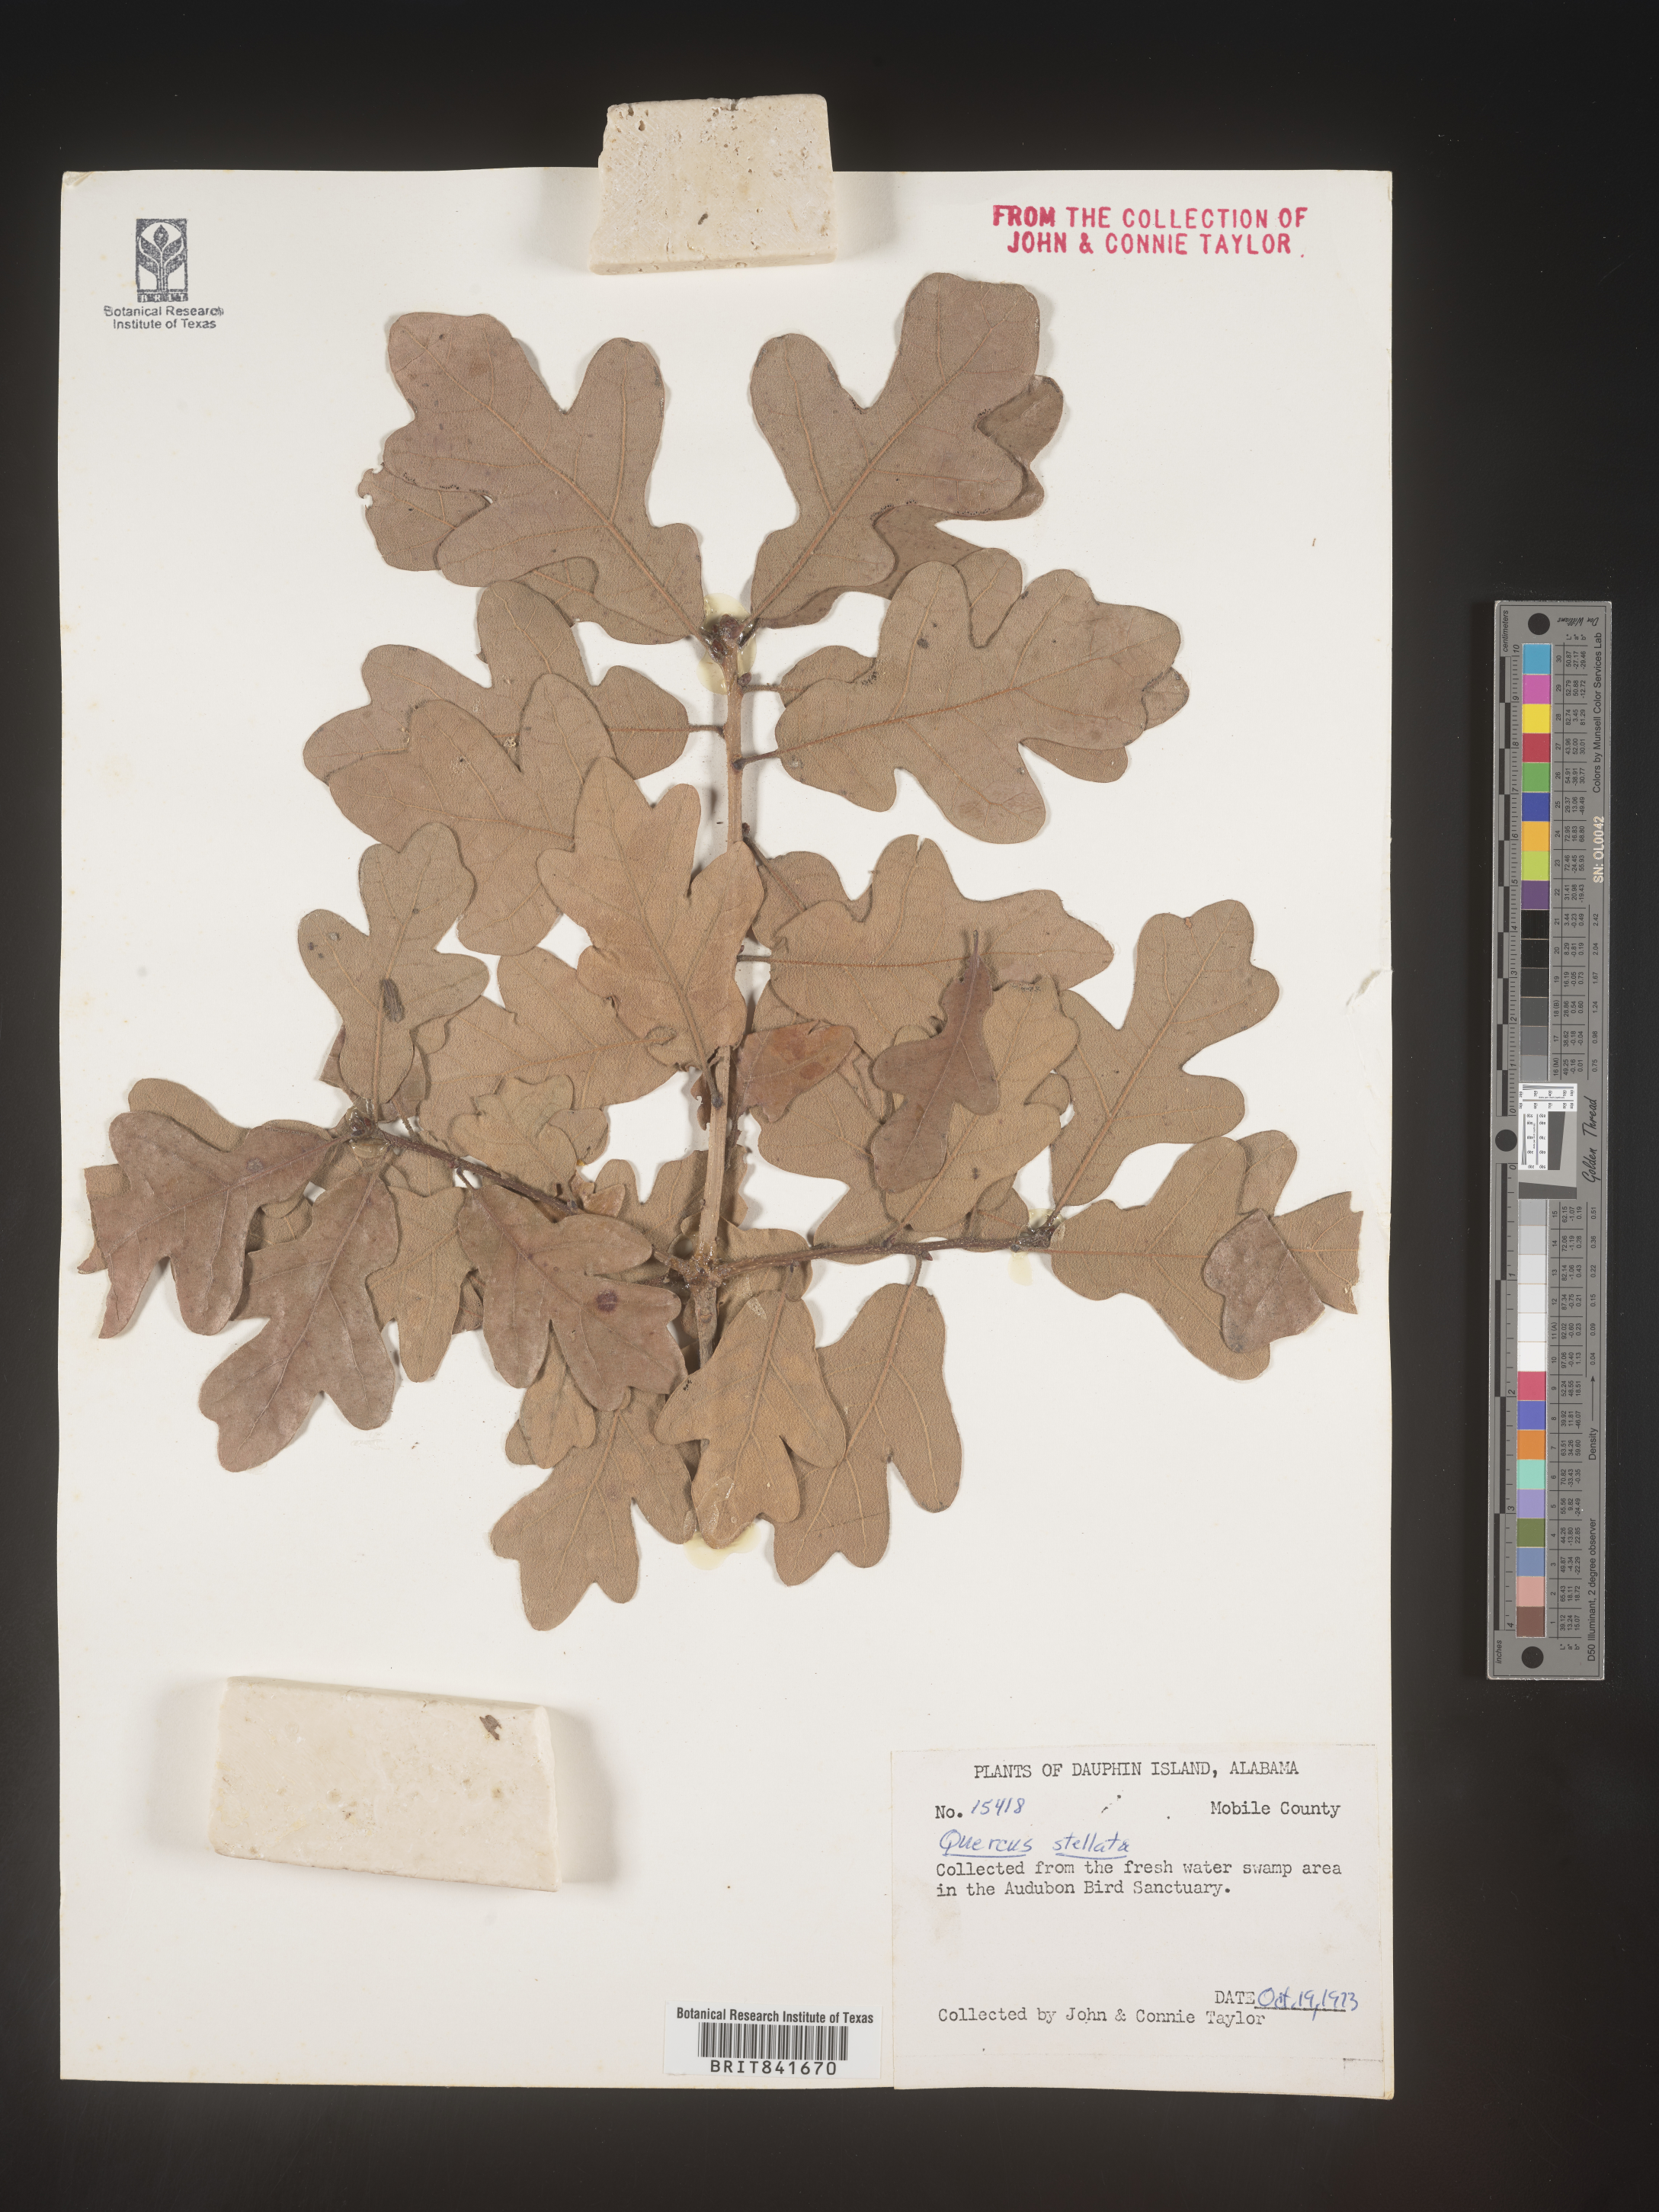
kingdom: Plantae
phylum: Tracheophyta
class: Magnoliopsida
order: Fagales
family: Fagaceae
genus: Quercus
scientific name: Quercus stellata
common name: Post oak
